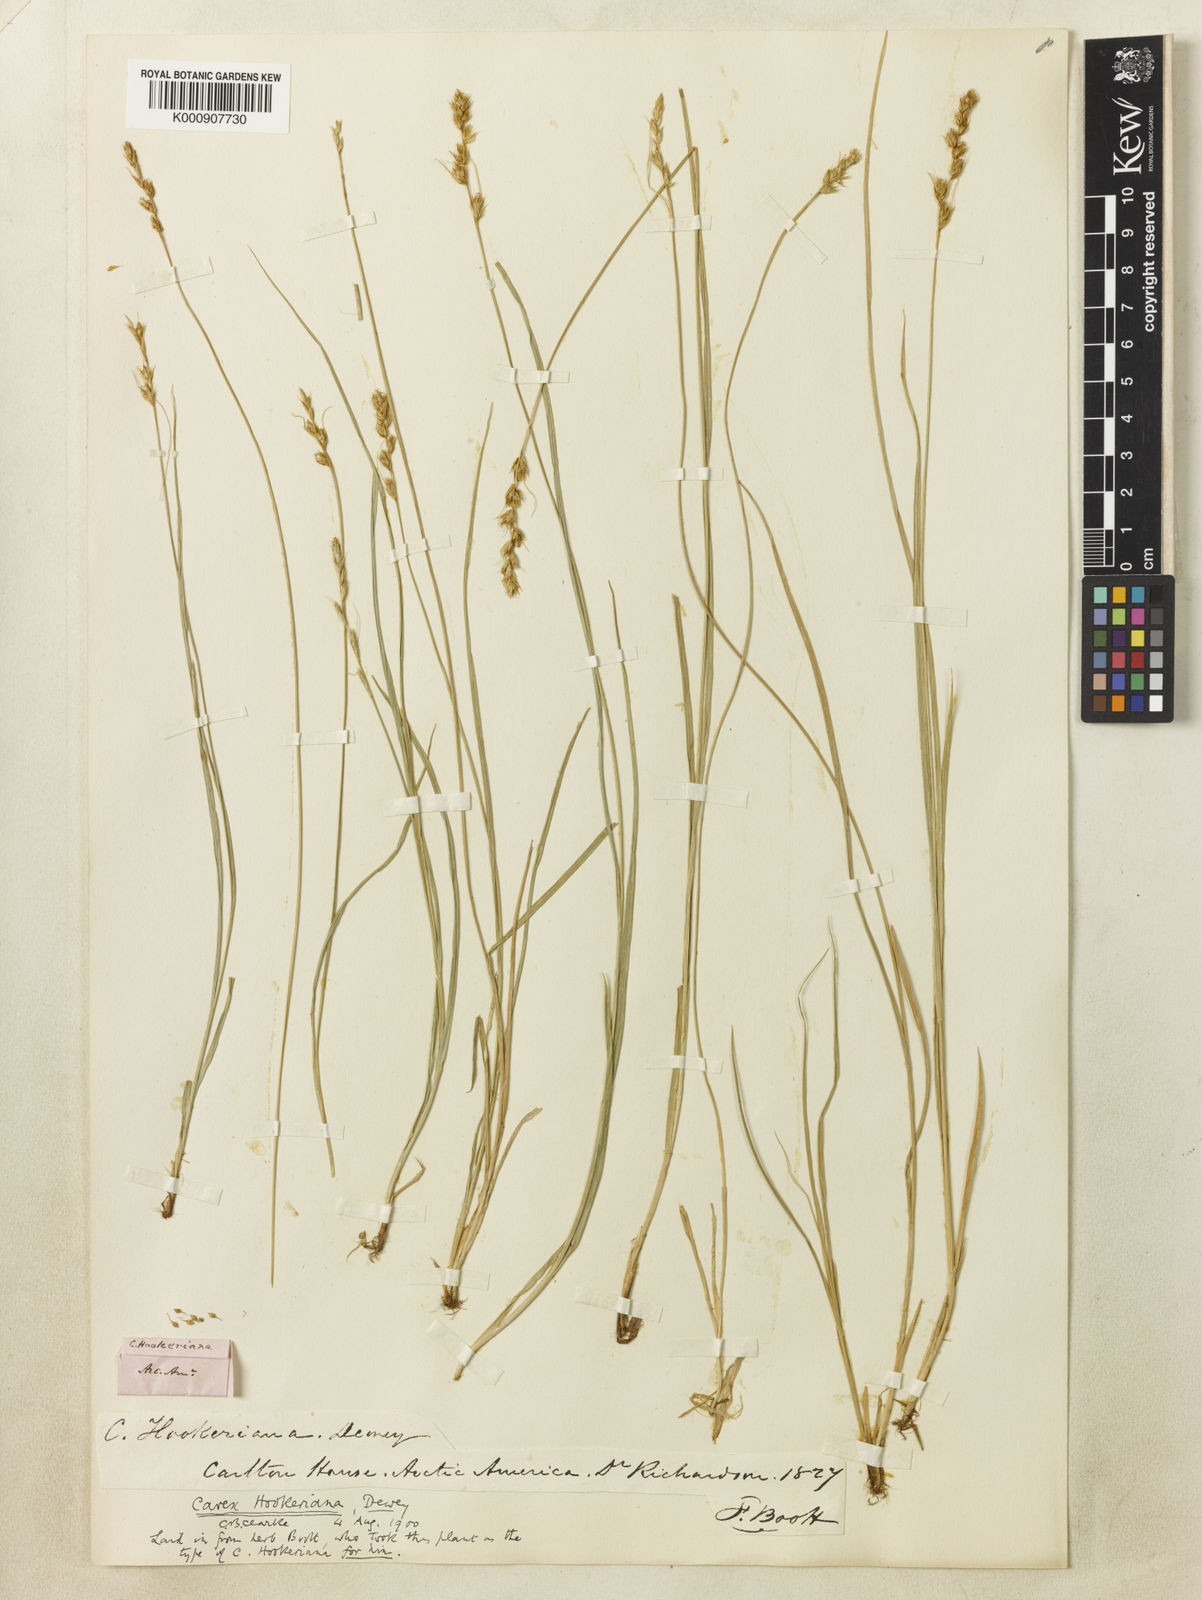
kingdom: Plantae
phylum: Tracheophyta
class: Liliopsida
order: Poales
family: Cyperaceae
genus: Carex
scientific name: Carex hookeriana
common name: Hooker's sedge
